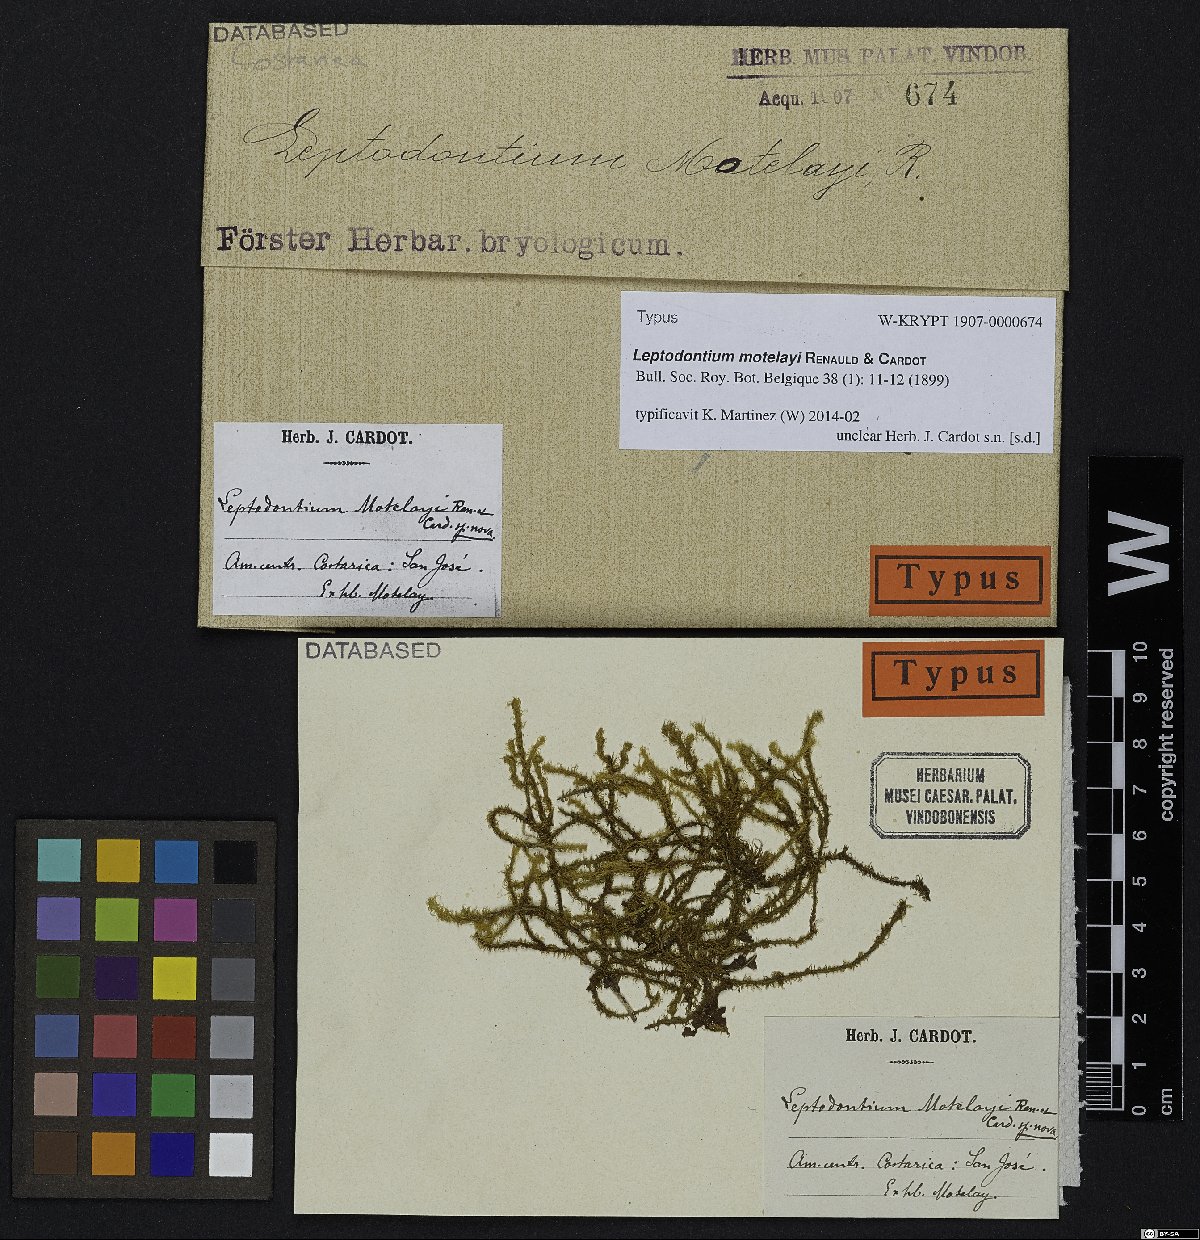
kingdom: Plantae
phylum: Bryophyta
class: Bryopsida
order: Pottiales
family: Pottiaceae
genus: Leptodontium
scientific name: Leptodontium excelsum
